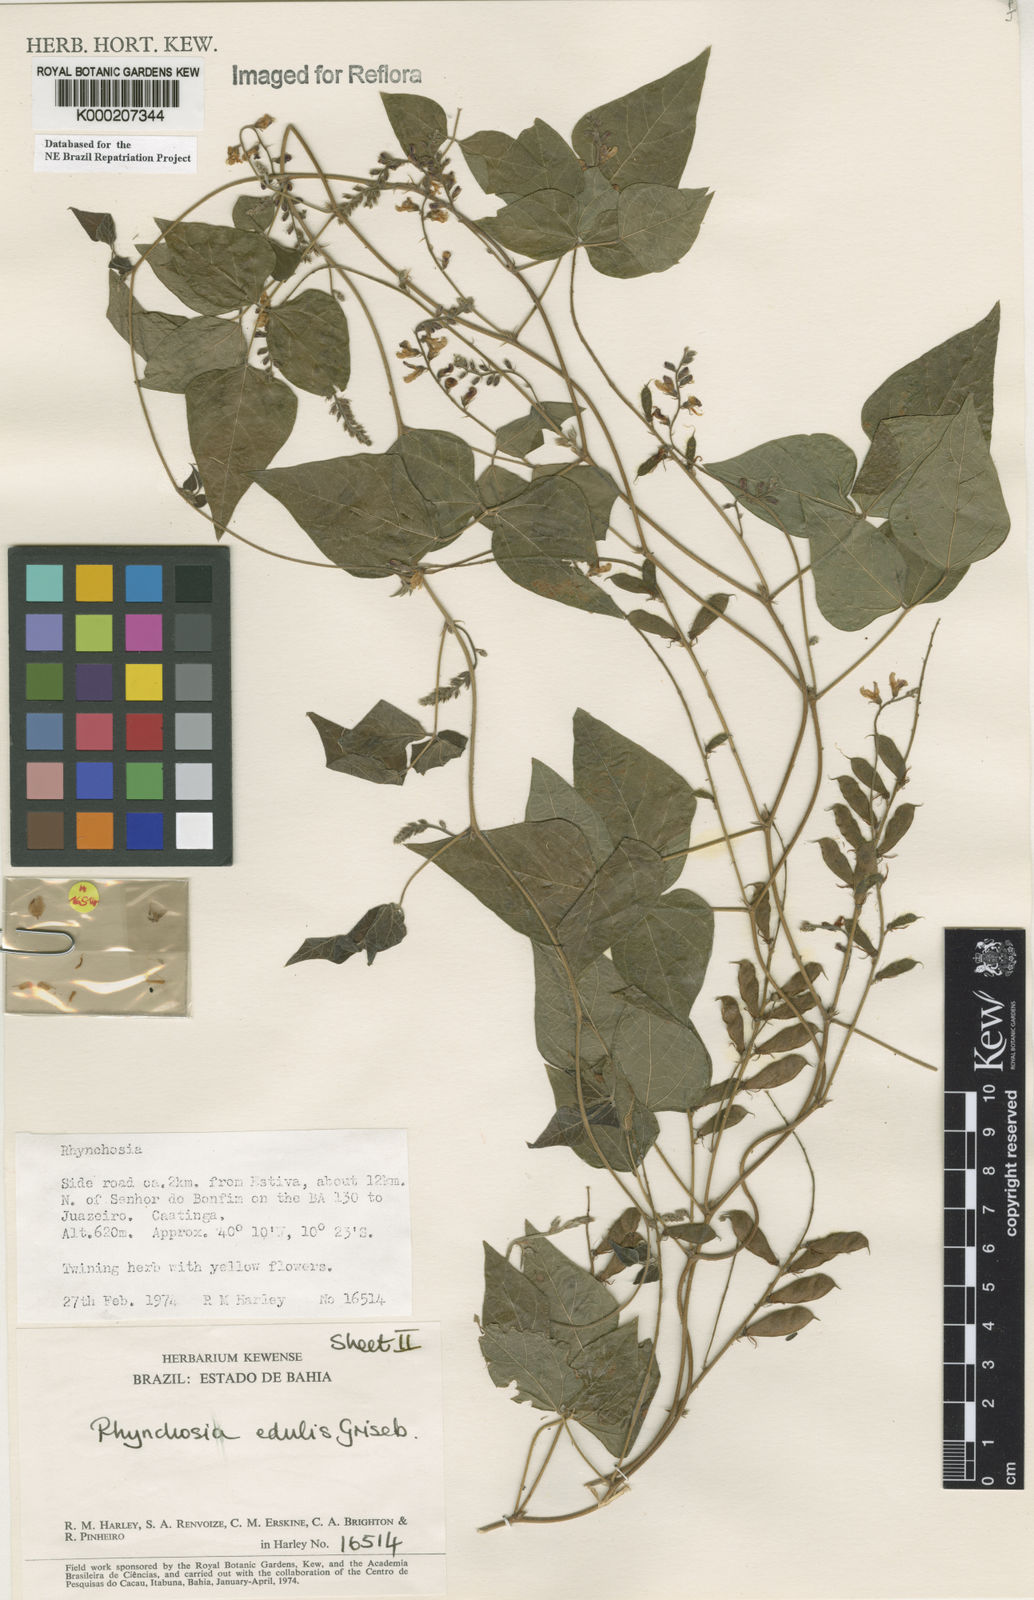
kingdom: Plantae
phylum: Tracheophyta
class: Magnoliopsida
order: Fabales
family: Fabaceae
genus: Rhynchosia
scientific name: Rhynchosia edulis
